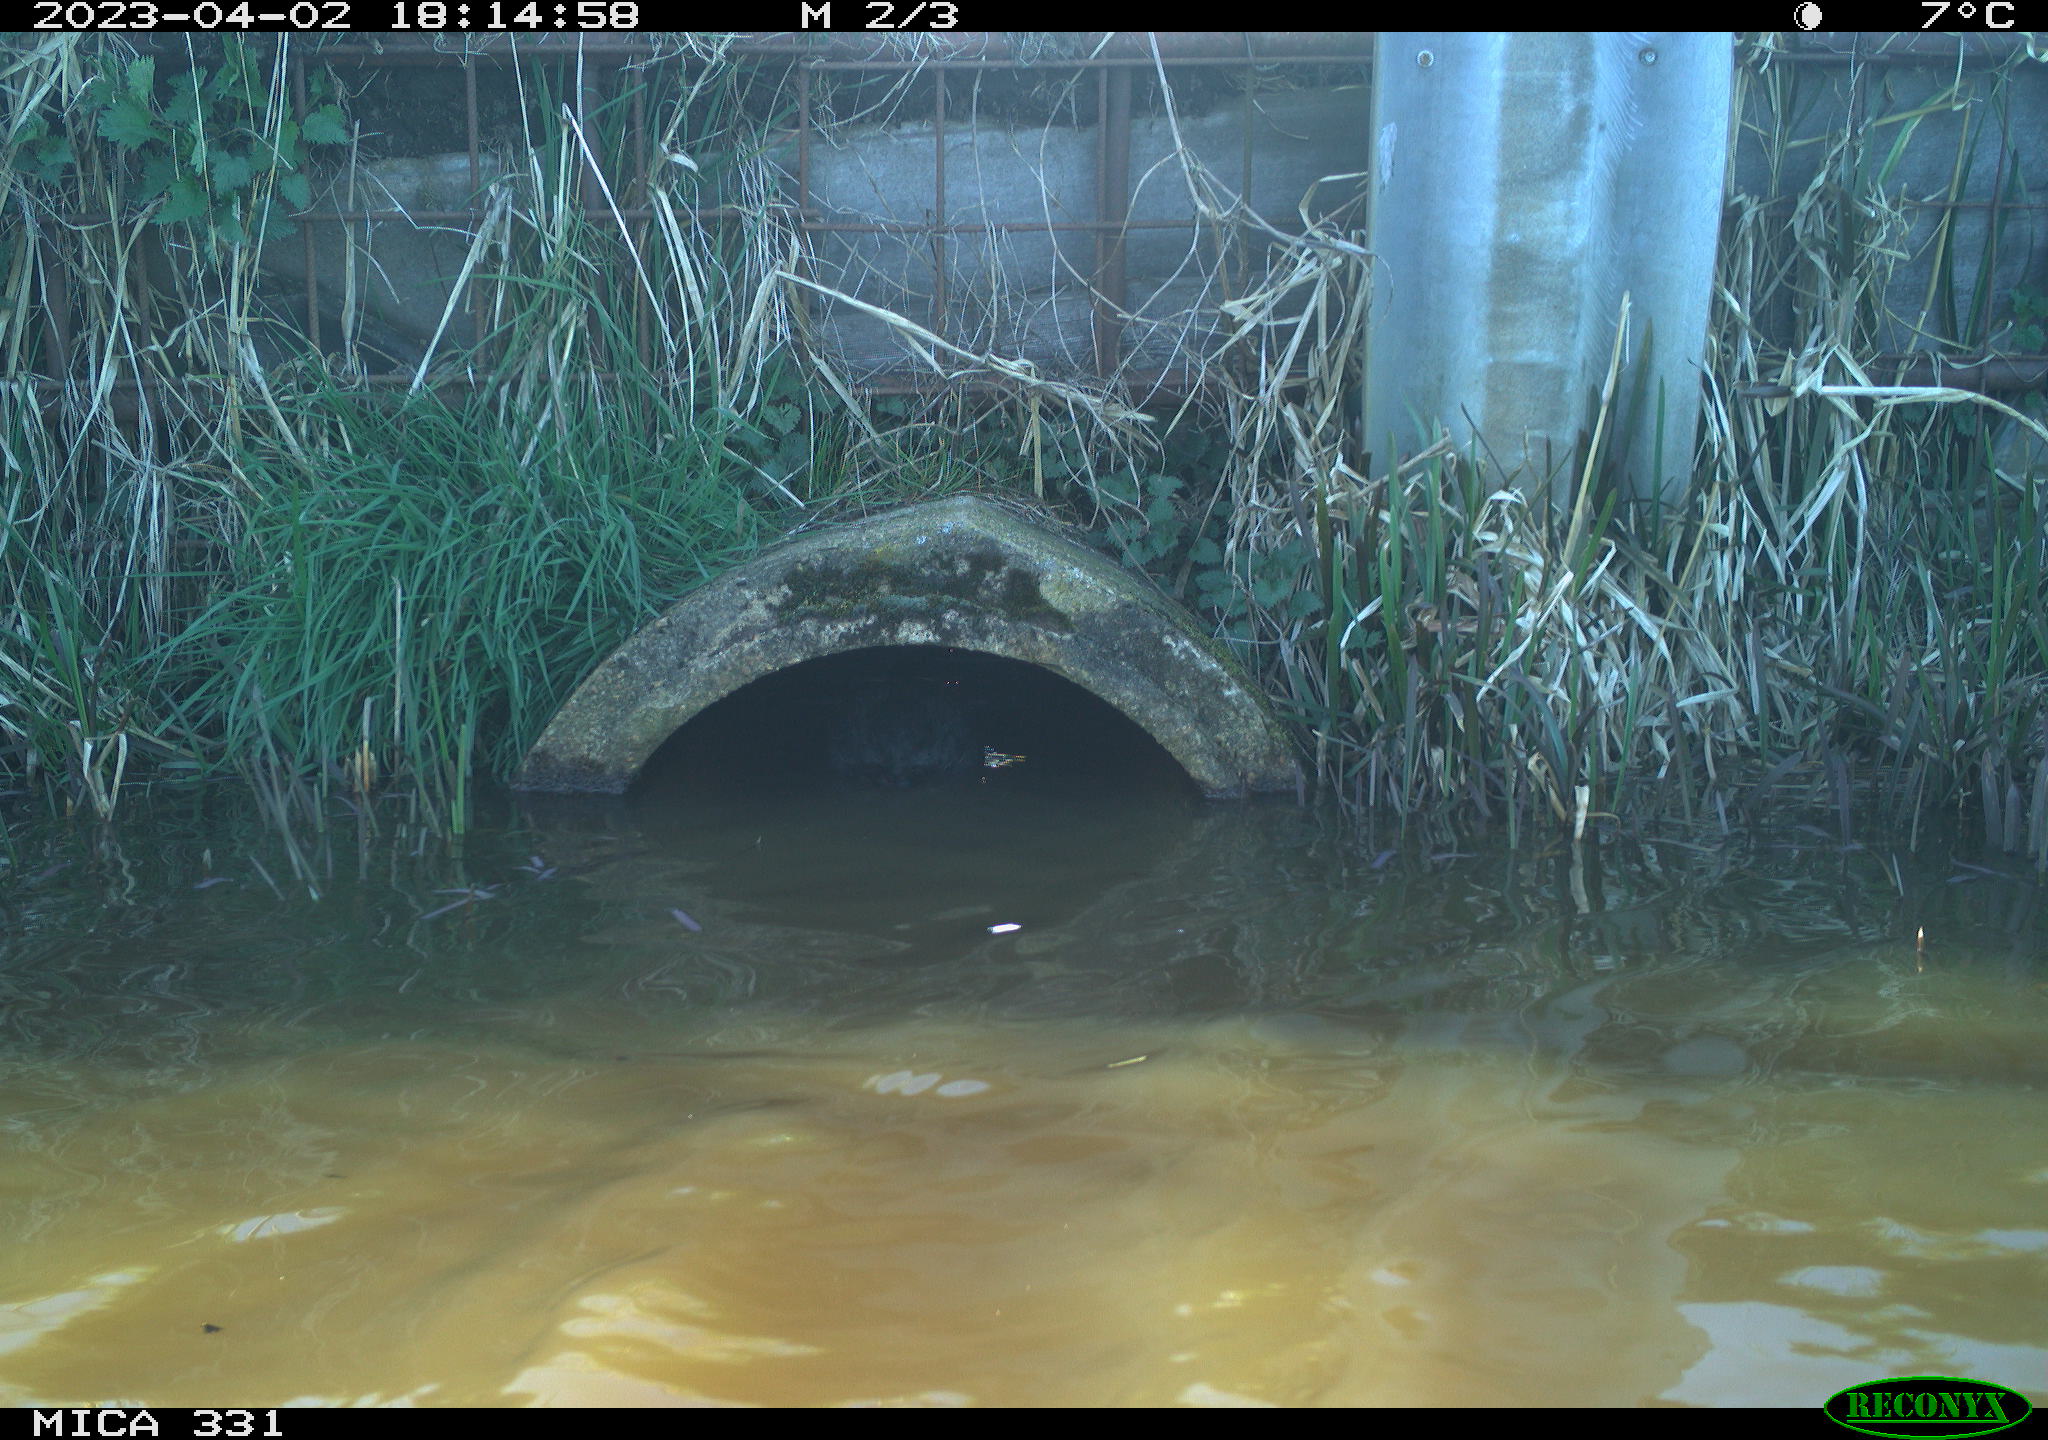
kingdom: Animalia
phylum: Chordata
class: Aves
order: Gruiformes
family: Rallidae
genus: Fulica
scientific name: Fulica atra
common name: Eurasian coot
